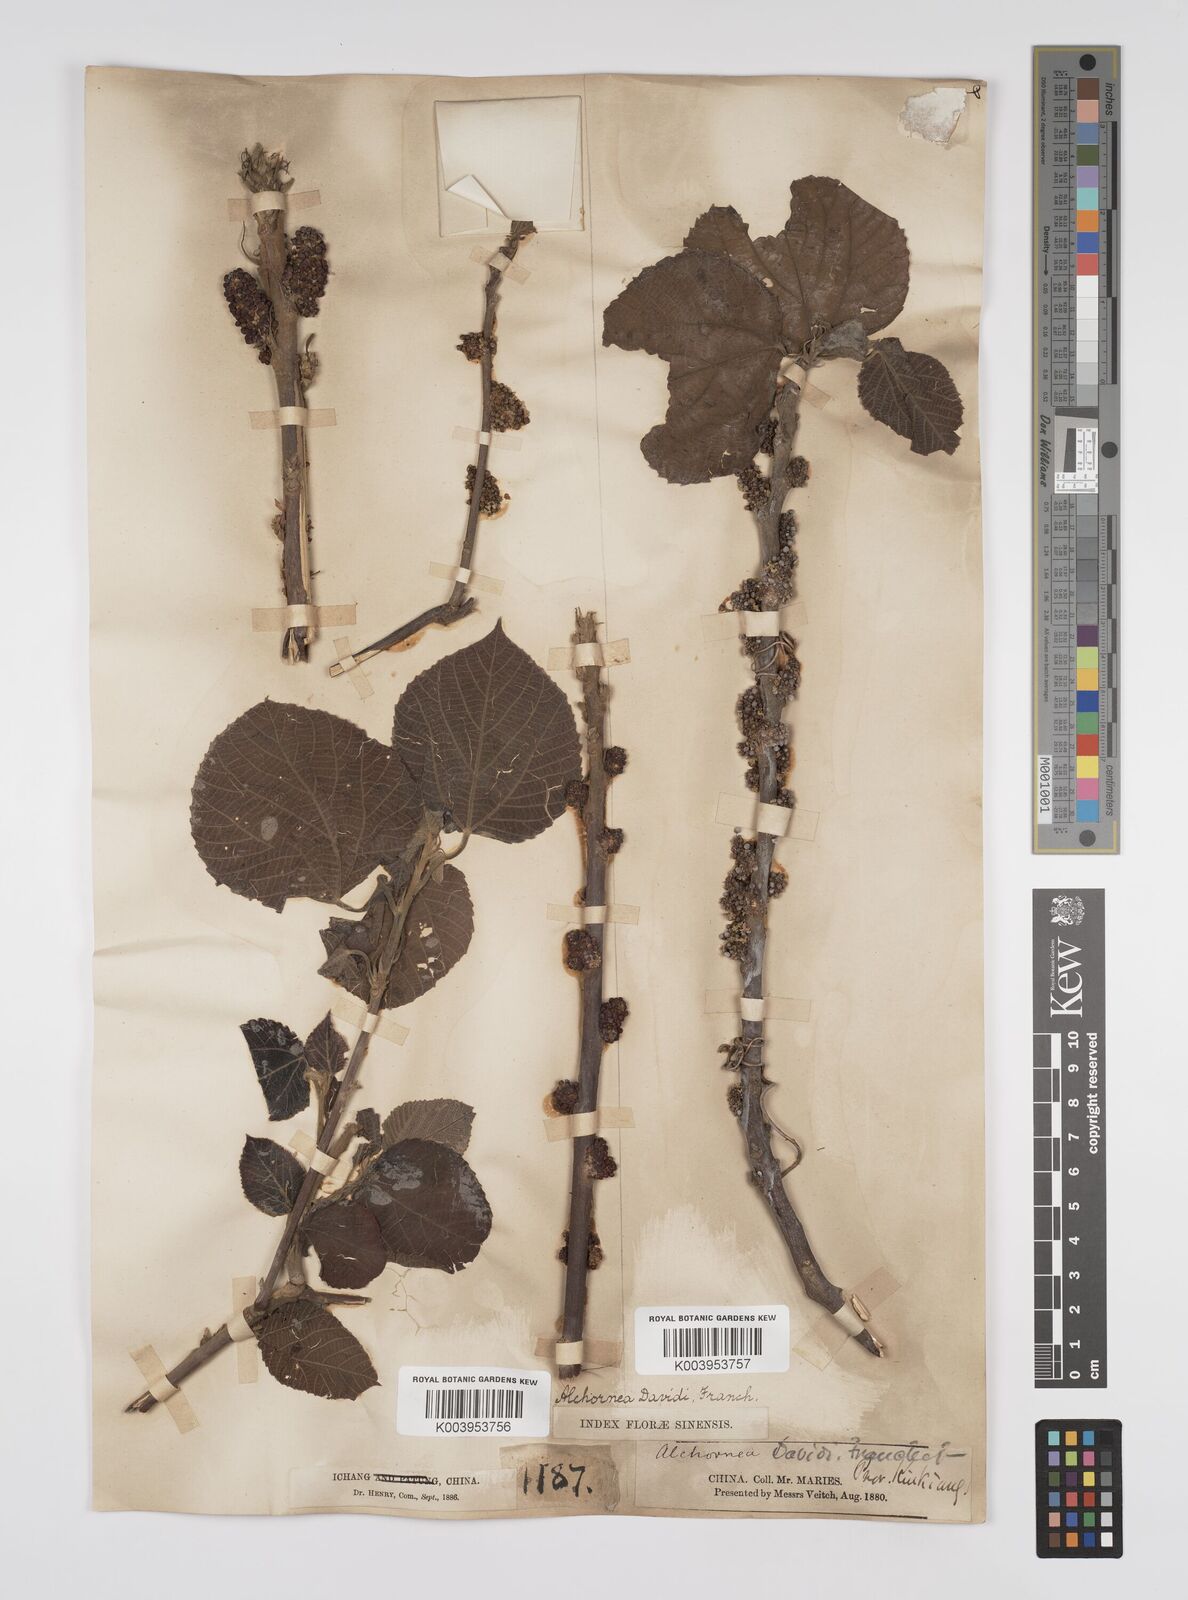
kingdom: Plantae
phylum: Tracheophyta
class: Magnoliopsida
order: Malpighiales
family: Euphorbiaceae
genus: Alchornea
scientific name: Alchornea davidii
